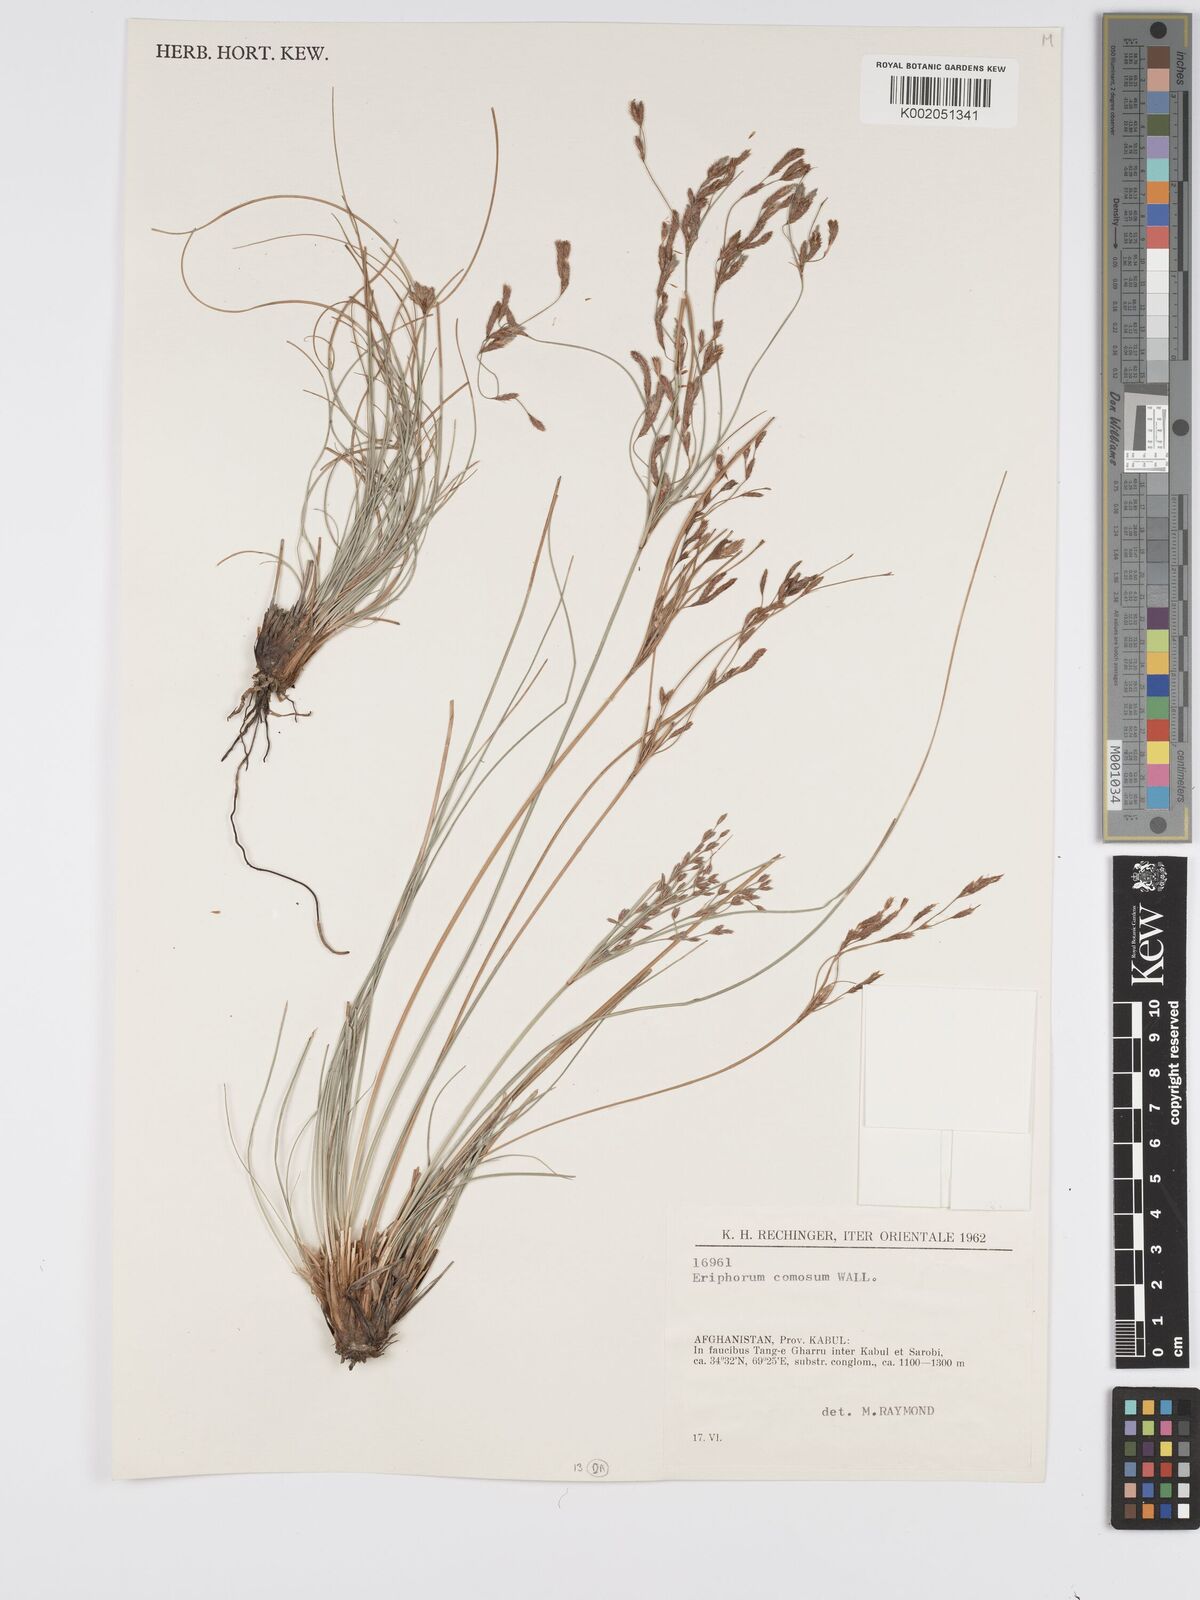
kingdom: Plantae
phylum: Tracheophyta
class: Liliopsida
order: Poales
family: Cyperaceae
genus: Erioscirpus
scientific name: Erioscirpus comosus
